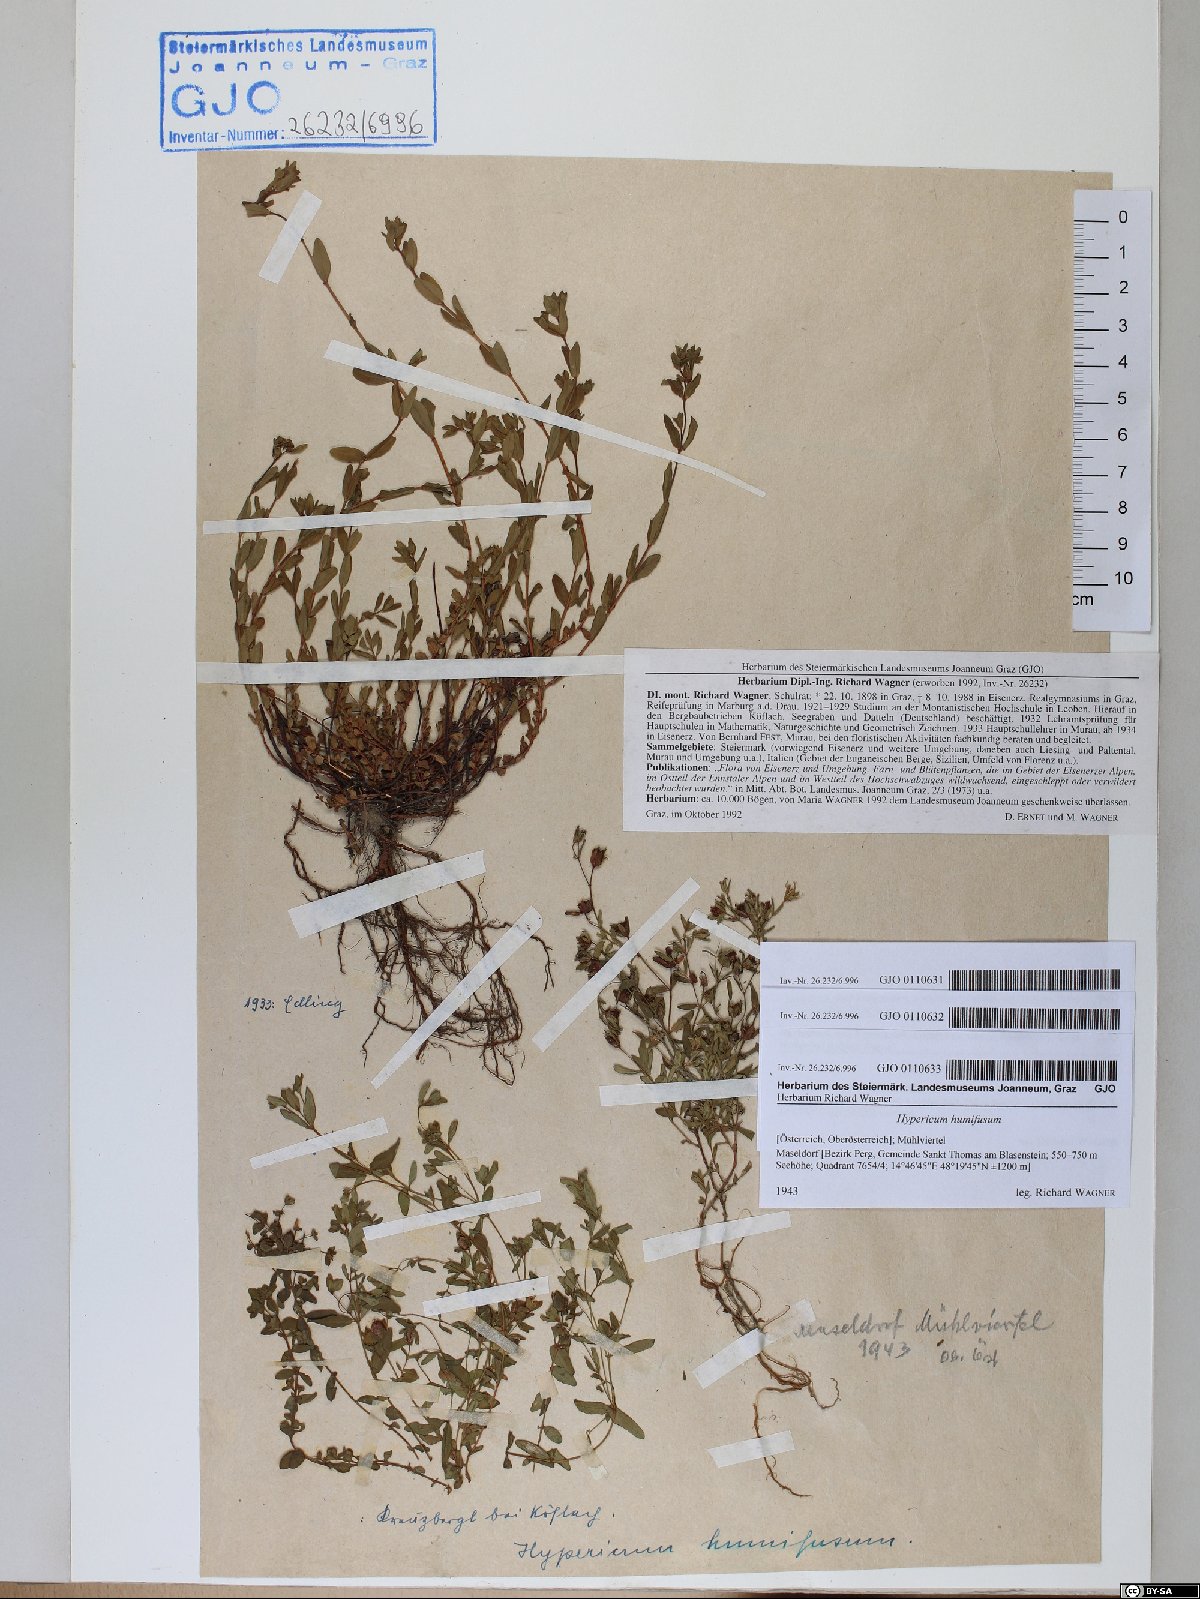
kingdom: Plantae
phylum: Tracheophyta
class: Magnoliopsida
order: Malpighiales
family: Hypericaceae
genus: Hypericum
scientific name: Hypericum humifusum
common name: Trailing st. john's-wort
